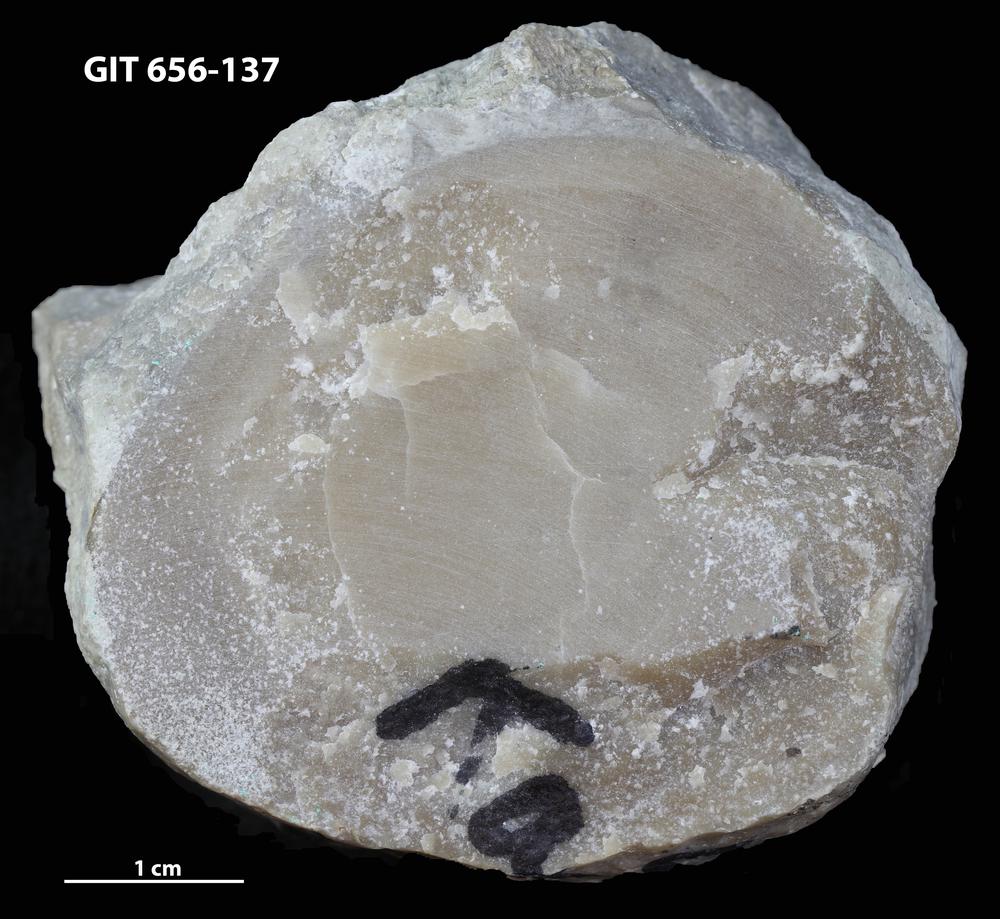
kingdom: Animalia
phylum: Porifera
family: Stromatoporidae
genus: Stromatopora
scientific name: Stromatopora
